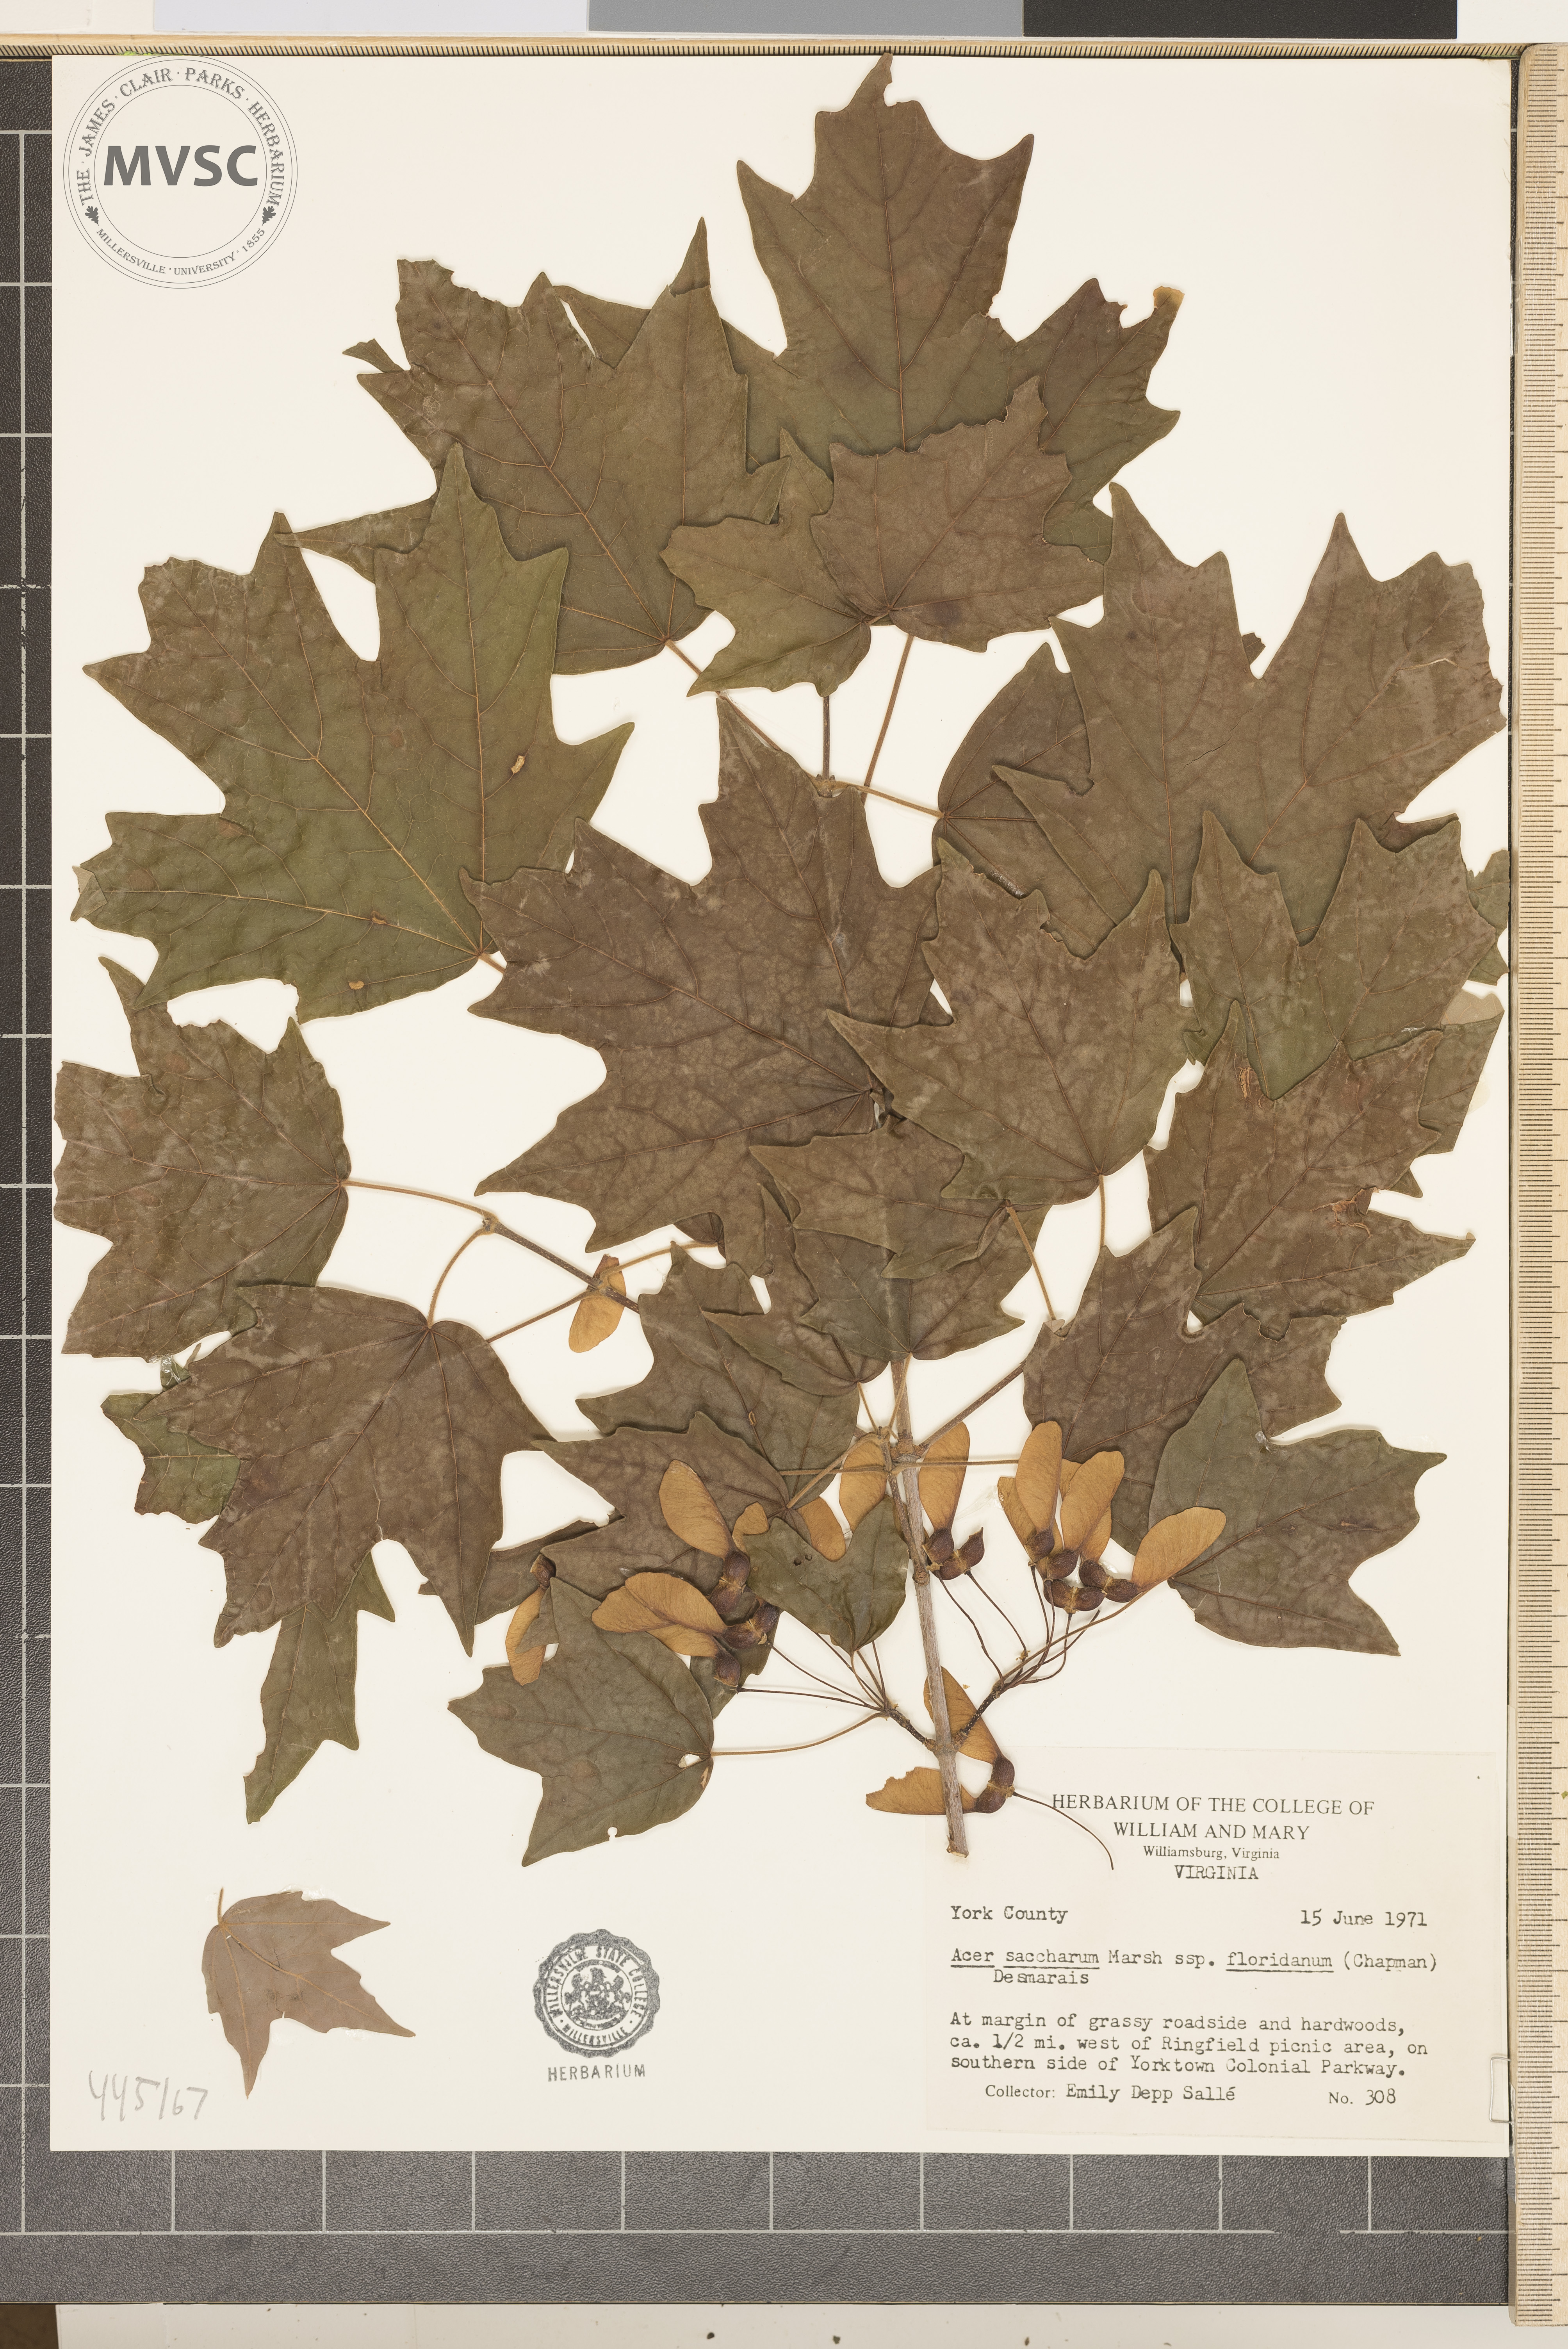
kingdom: Plantae
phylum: Tracheophyta
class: Magnoliopsida
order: Sapindales
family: Sapindaceae
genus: Acer
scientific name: Acer saccharum
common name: Sugar maple
